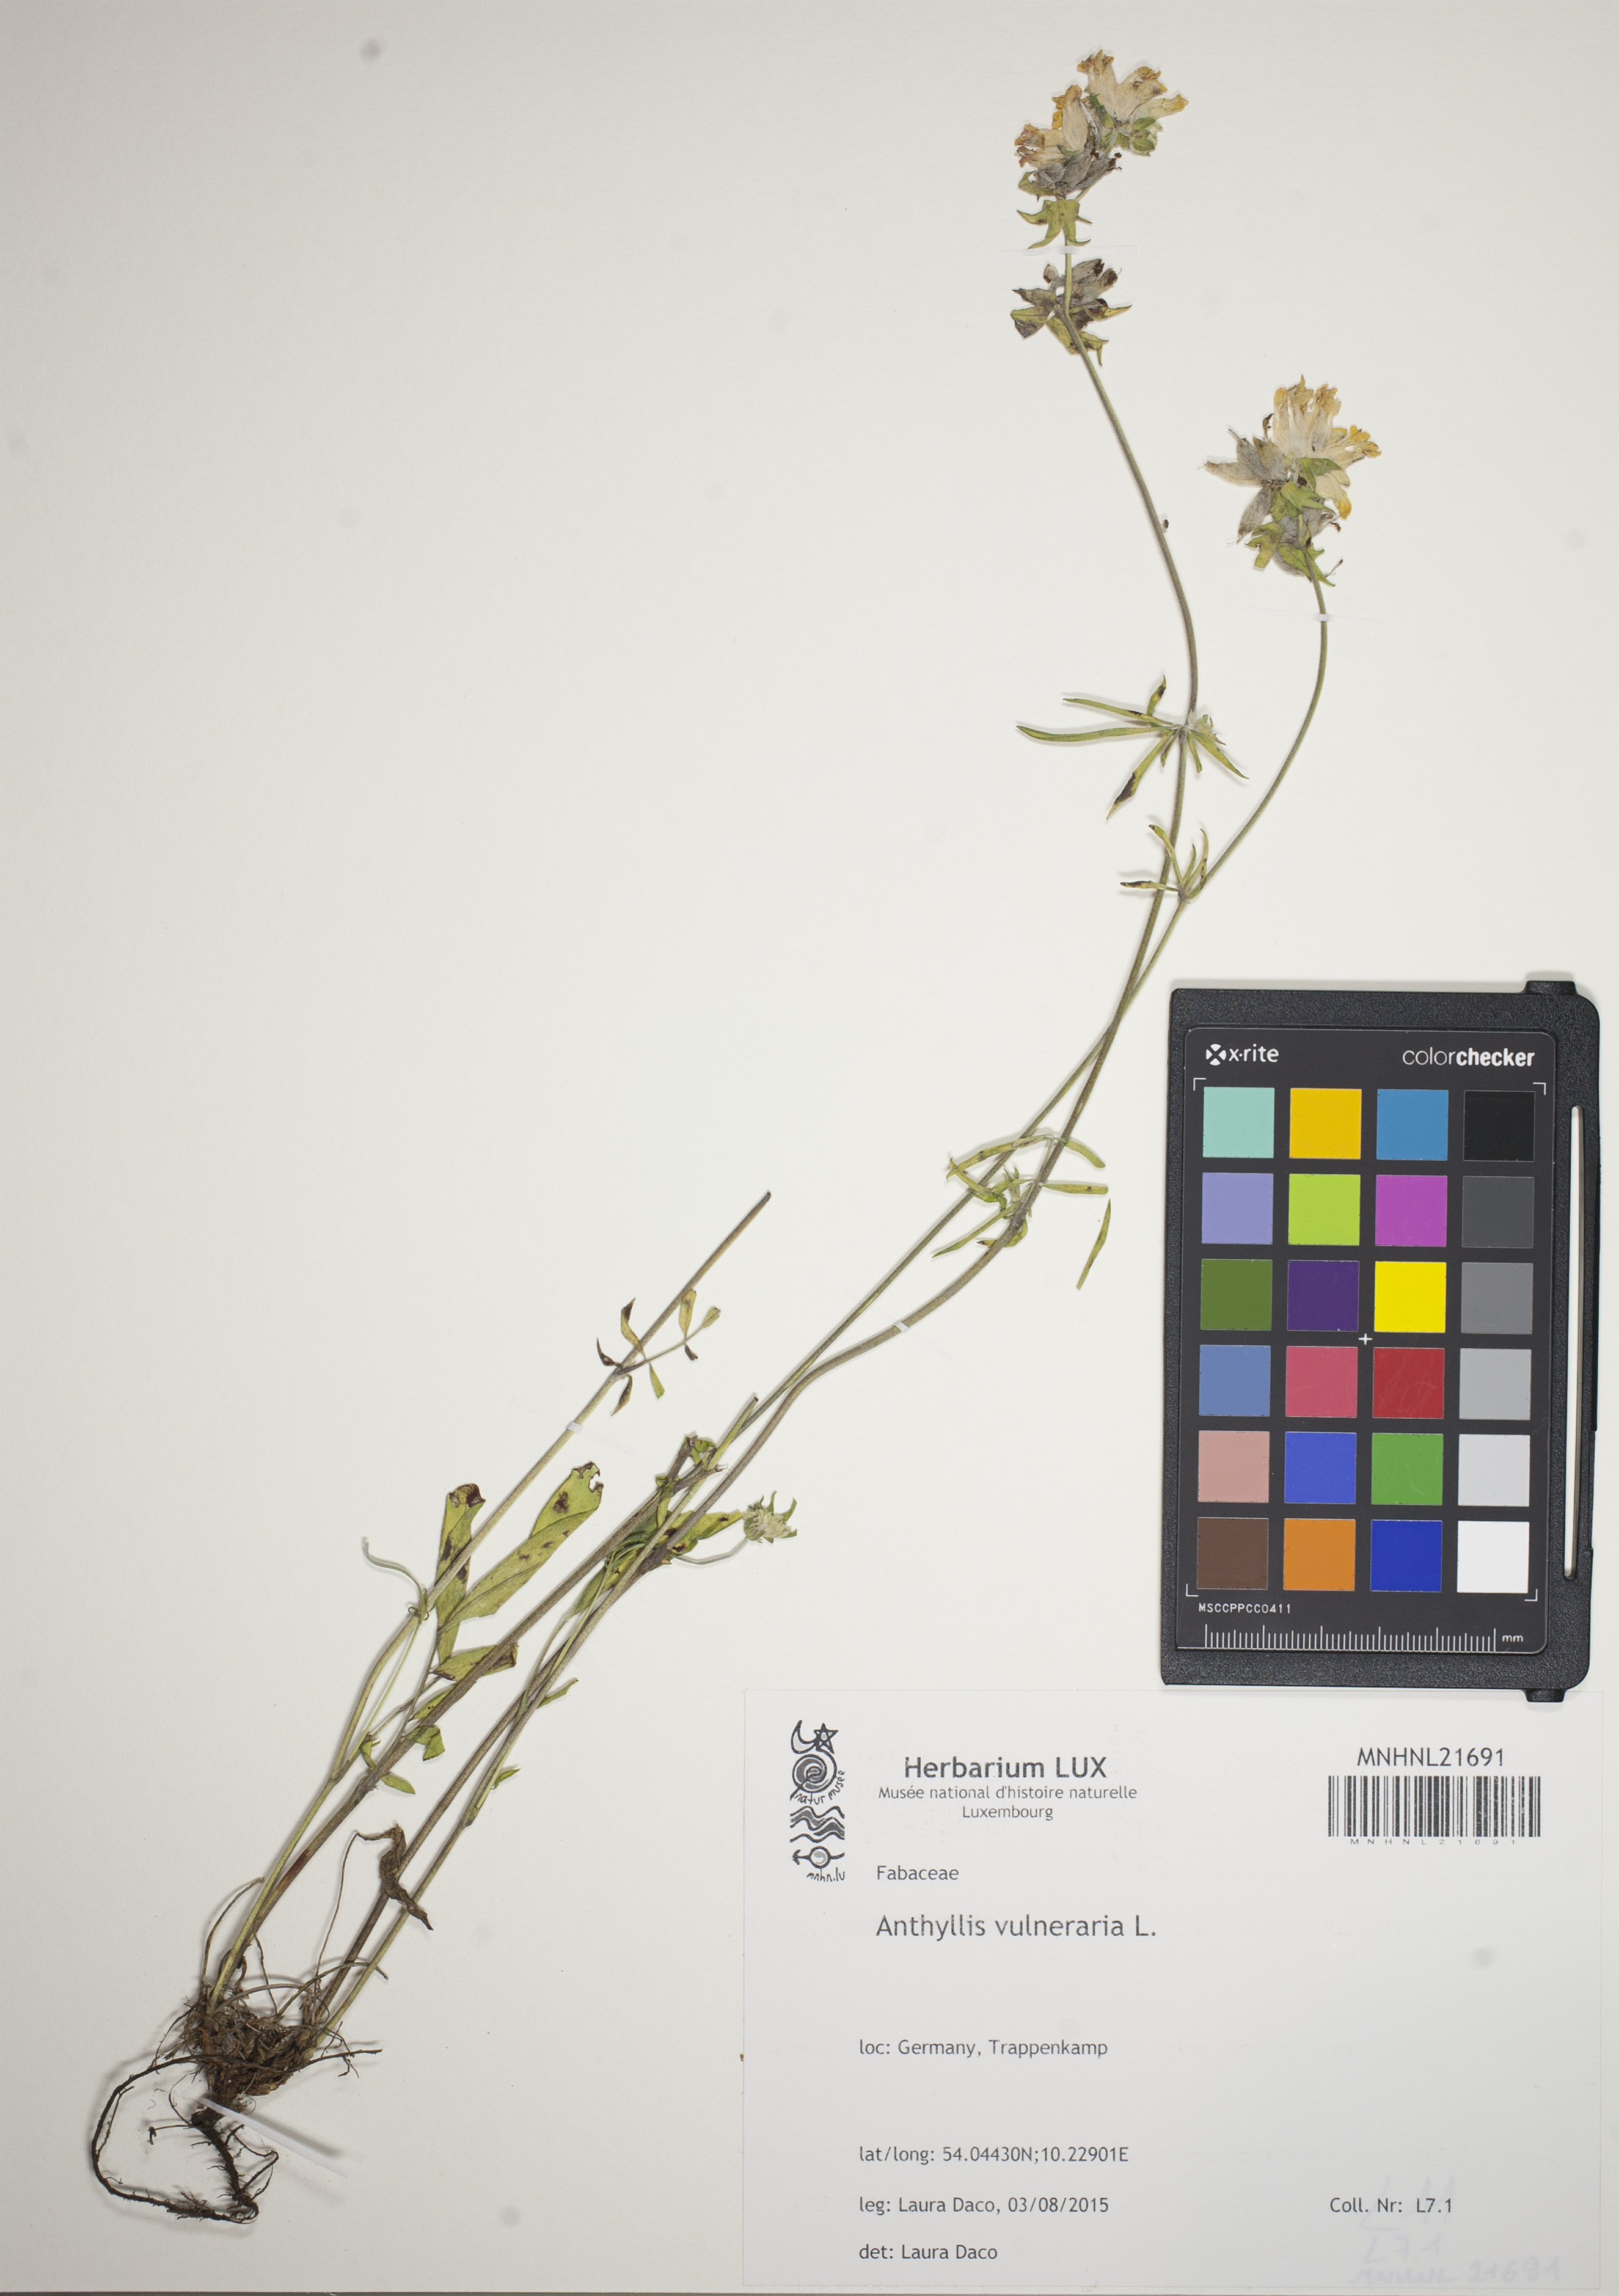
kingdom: Plantae
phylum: Tracheophyta
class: Magnoliopsida
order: Fabales
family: Fabaceae
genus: Anthyllis
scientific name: Anthyllis vulneraria
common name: Kidney vetch
